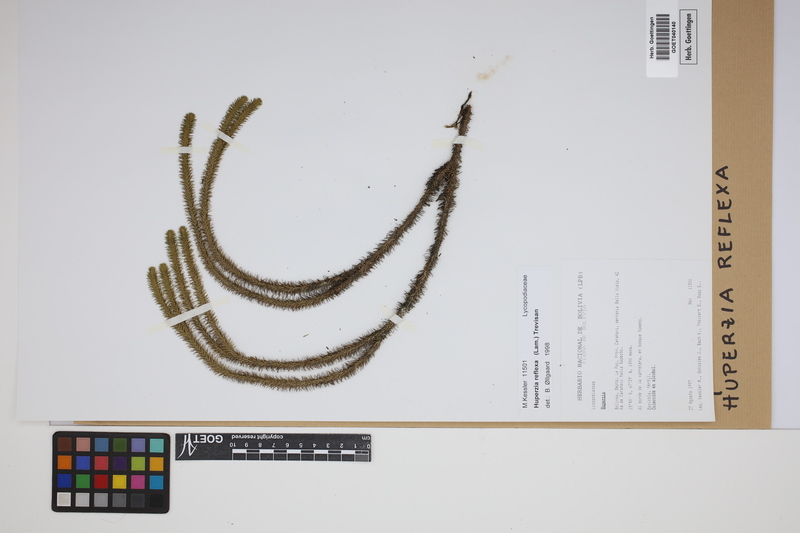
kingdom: Plantae
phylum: Tracheophyta
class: Lycopodiopsida
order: Lycopodiales
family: Lycopodiaceae
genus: Phlegmariurus
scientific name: Phlegmariurus reflexus
